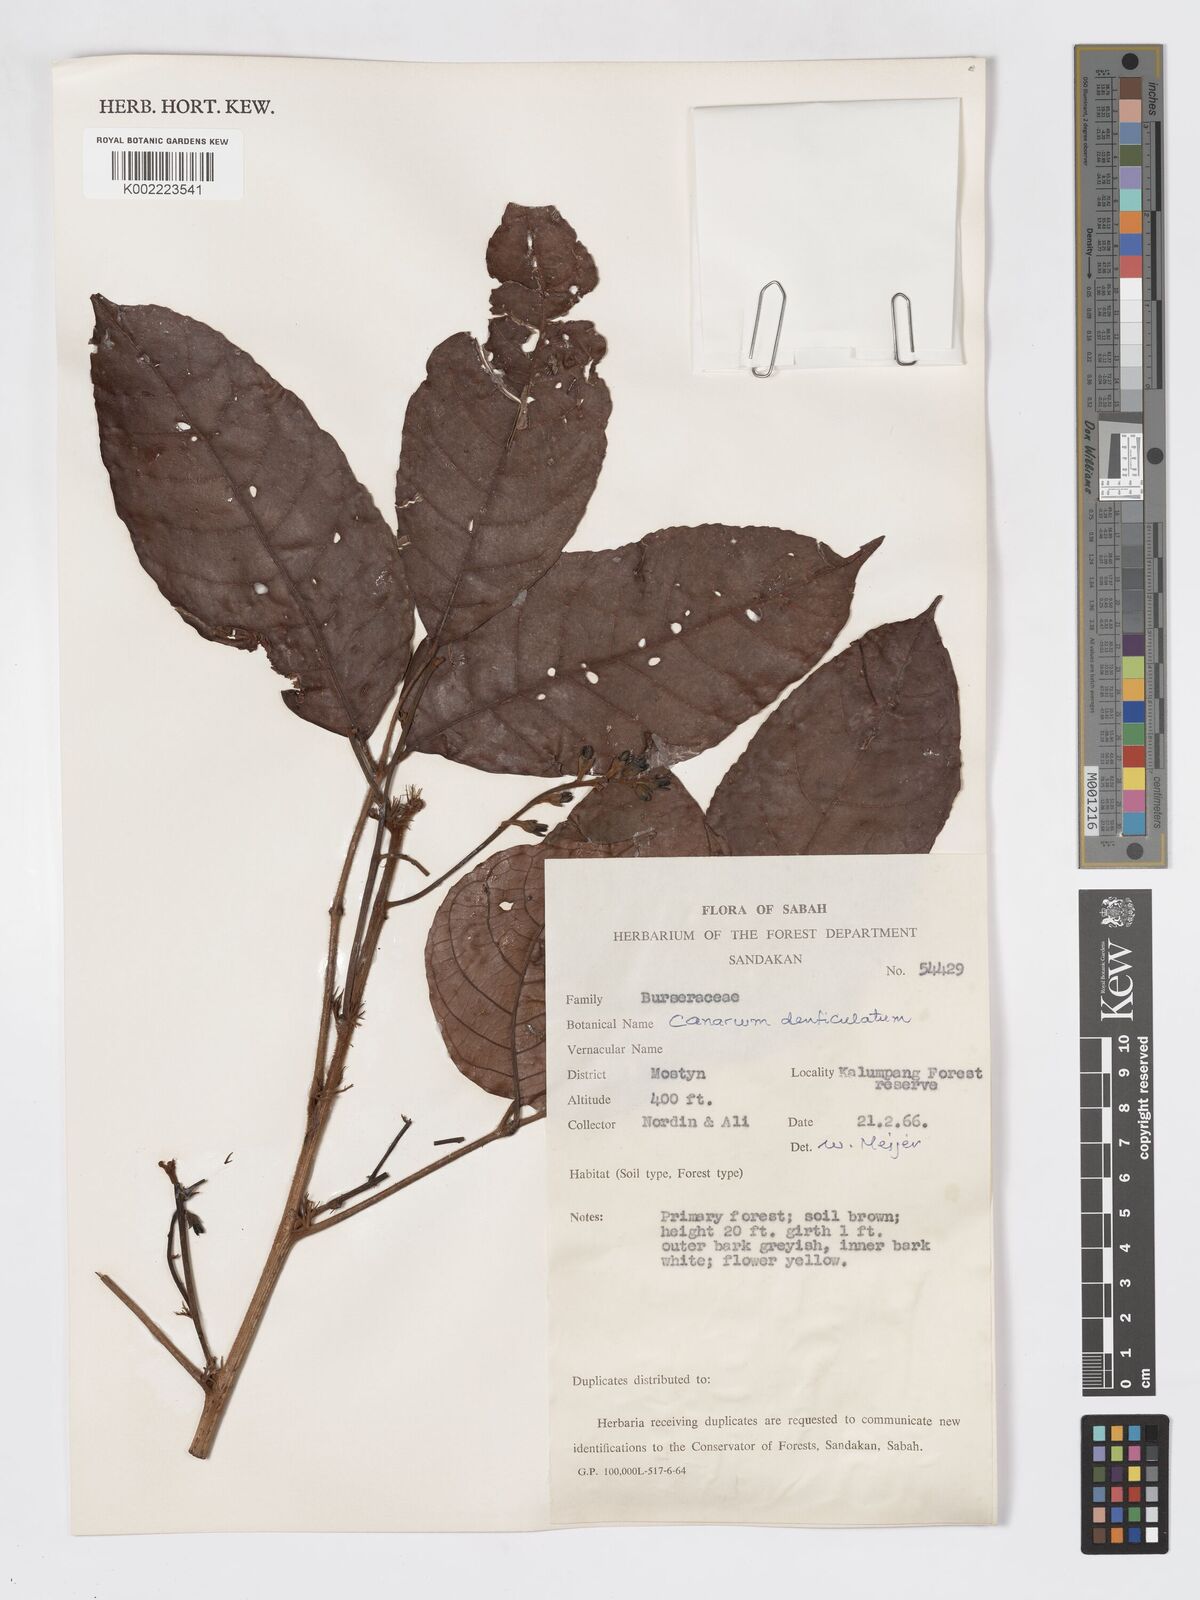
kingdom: Plantae
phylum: Tracheophyta
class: Magnoliopsida
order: Sapindales
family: Burseraceae
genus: Canarium
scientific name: Canarium denticulatum
